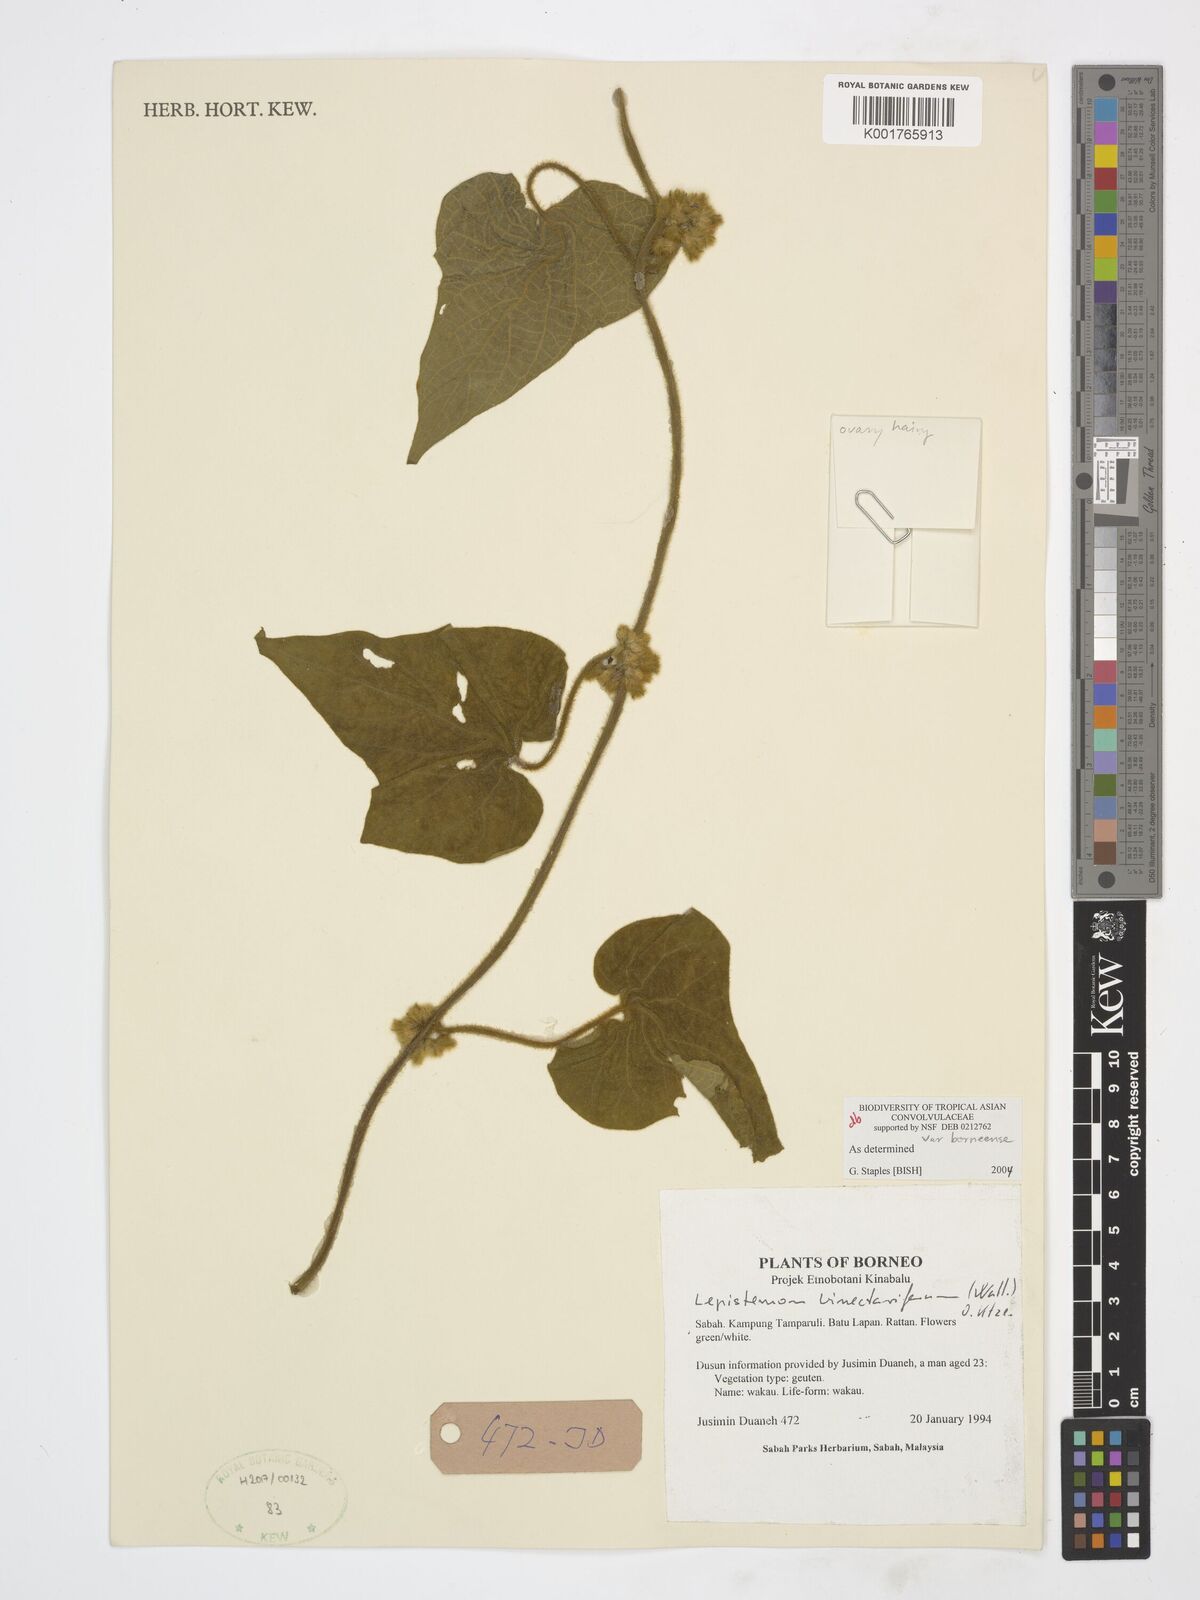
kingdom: Plantae
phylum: Tracheophyta
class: Magnoliopsida
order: Solanales
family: Convolvulaceae
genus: Lepistemon
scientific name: Lepistemon binectarifer
